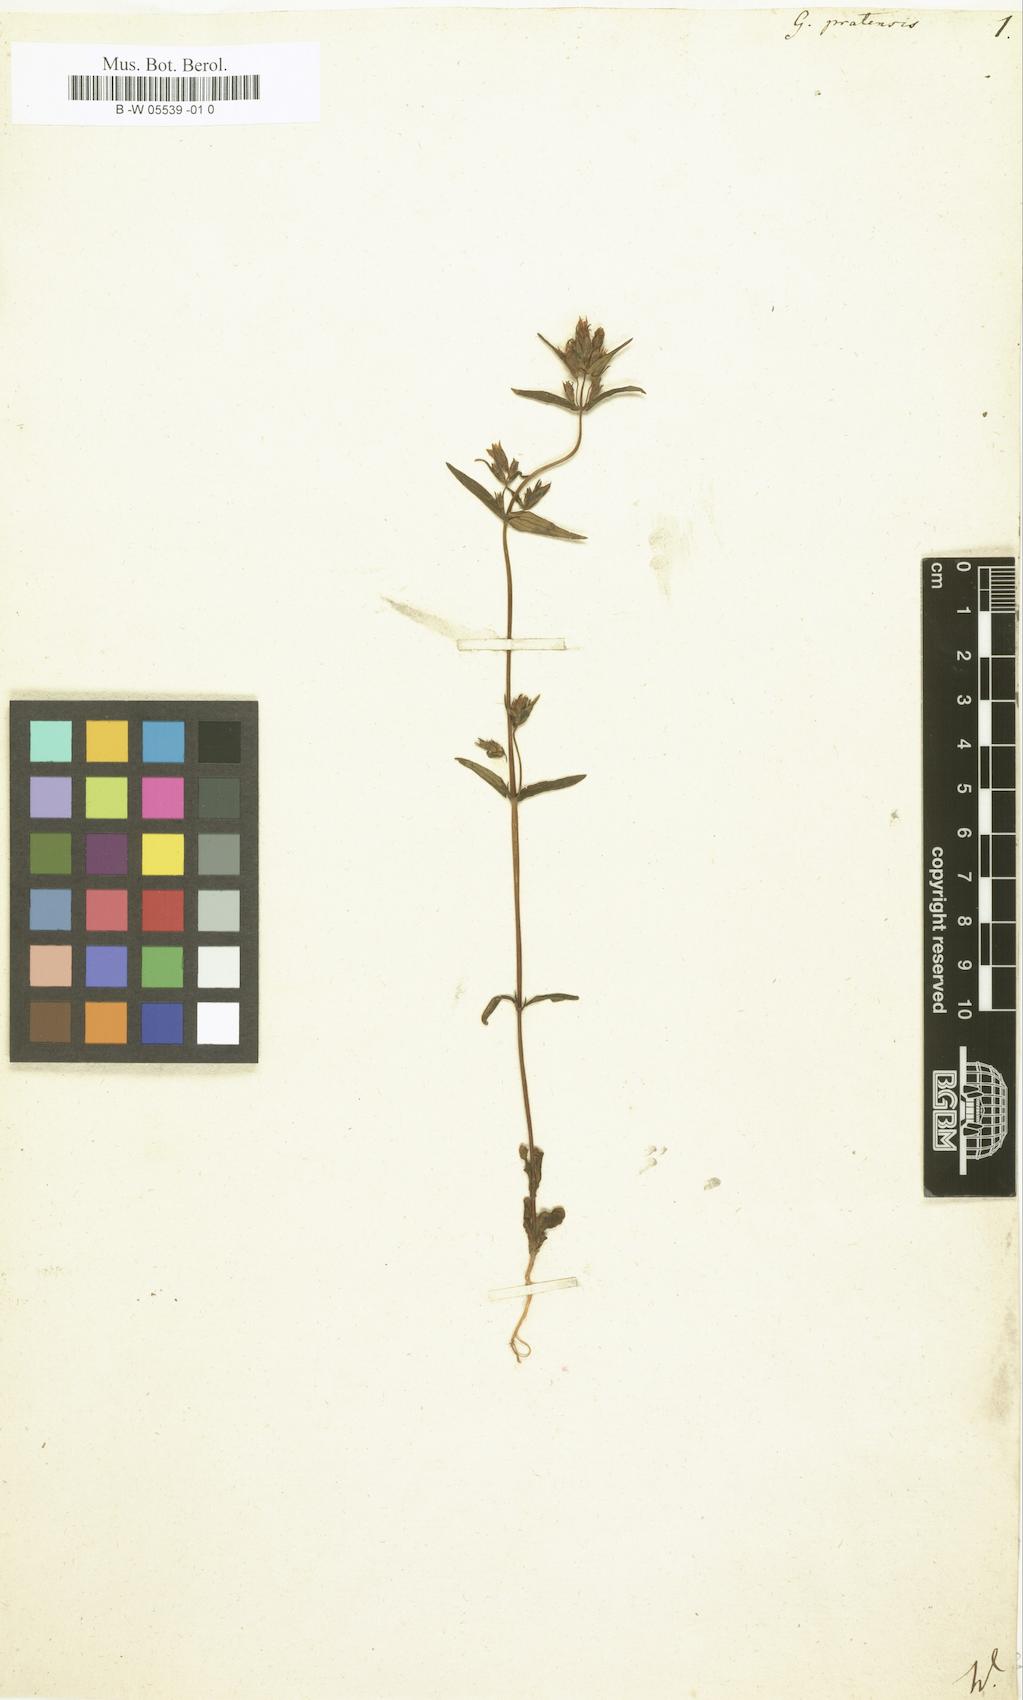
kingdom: Plantae
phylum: Tracheophyta
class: Magnoliopsida
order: Gentianales
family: Gentianaceae
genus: Gentianella
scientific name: Gentianella amarella
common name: Autumn gentian
